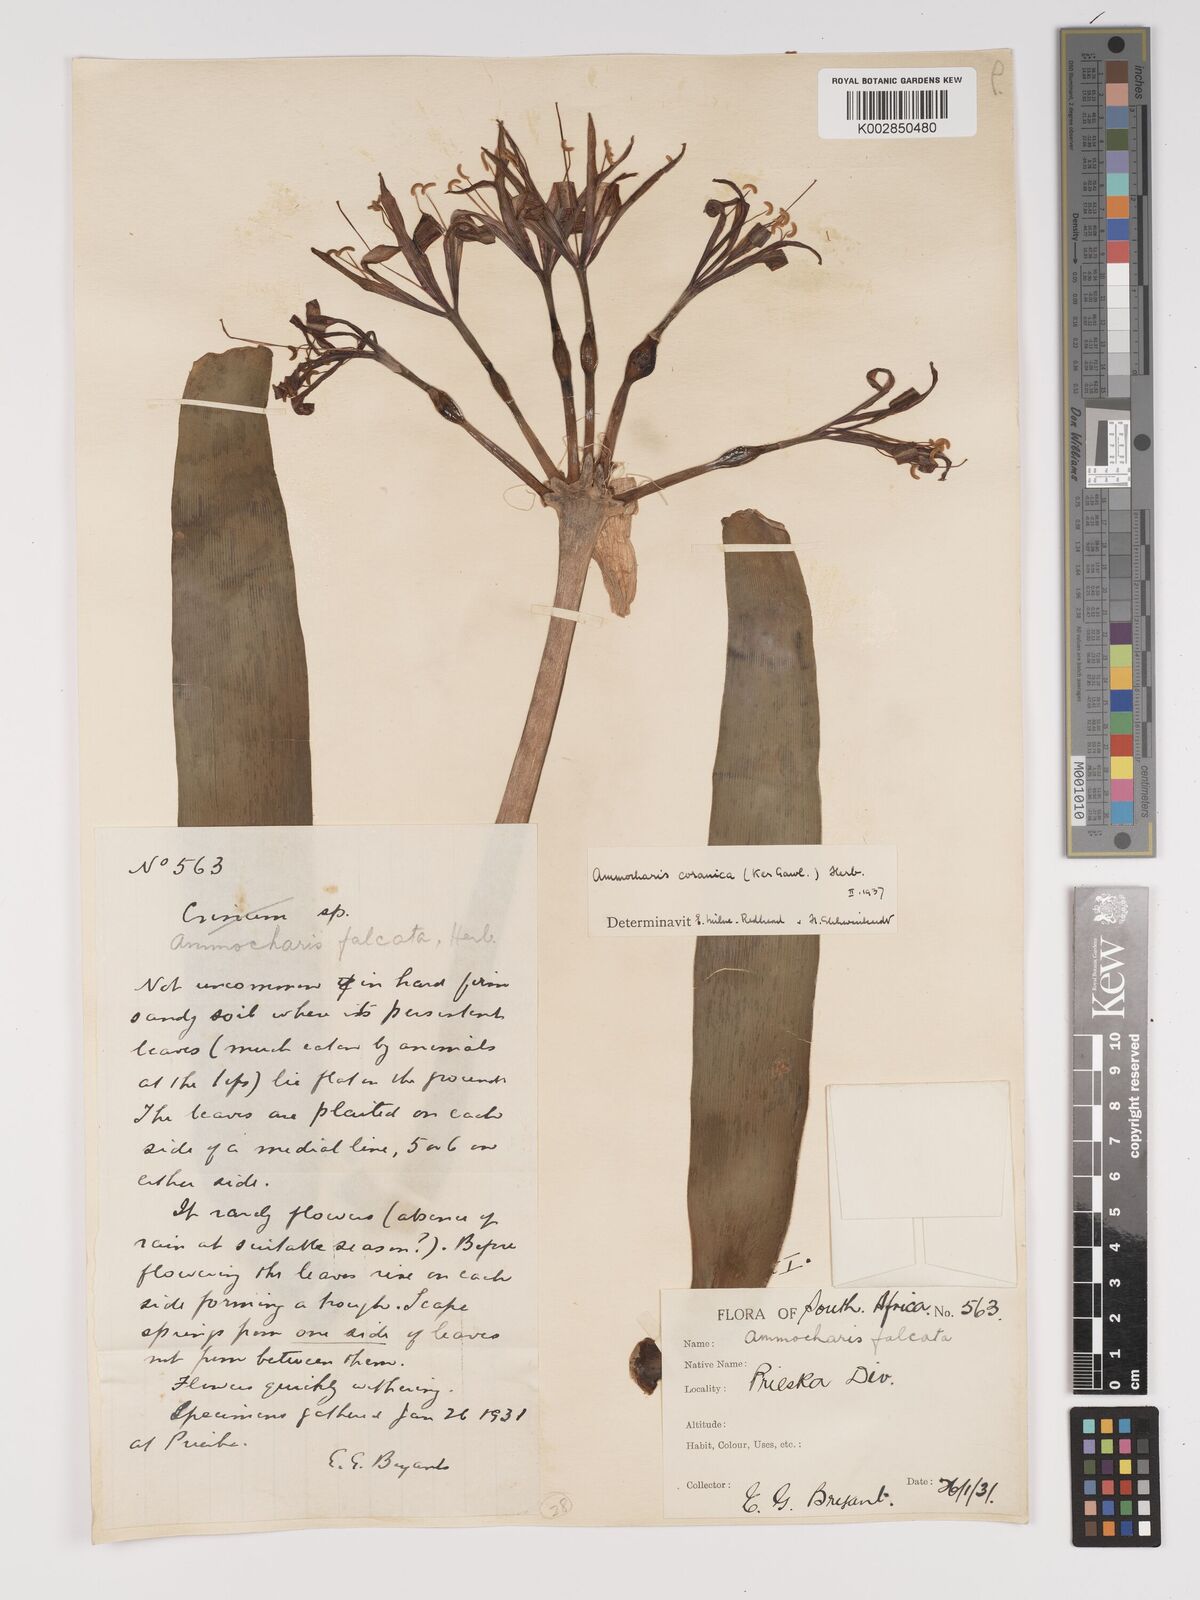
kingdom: Plantae
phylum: Tracheophyta
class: Liliopsida
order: Asparagales
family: Amaryllidaceae
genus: Ammocharis
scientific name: Ammocharis coranica
